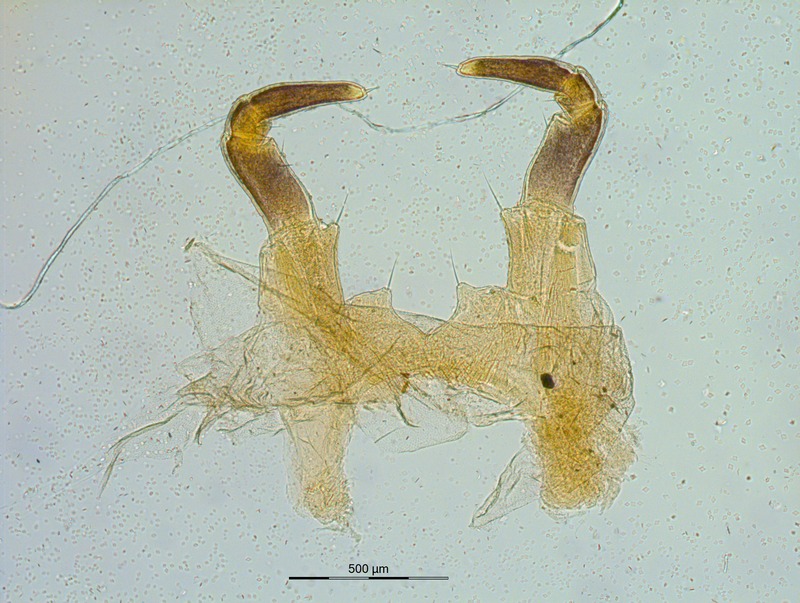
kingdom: Animalia
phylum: Arthropoda
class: Diplopoda
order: Glomerida
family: Glomeridae
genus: Glomeris
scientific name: Glomeris pulchra
